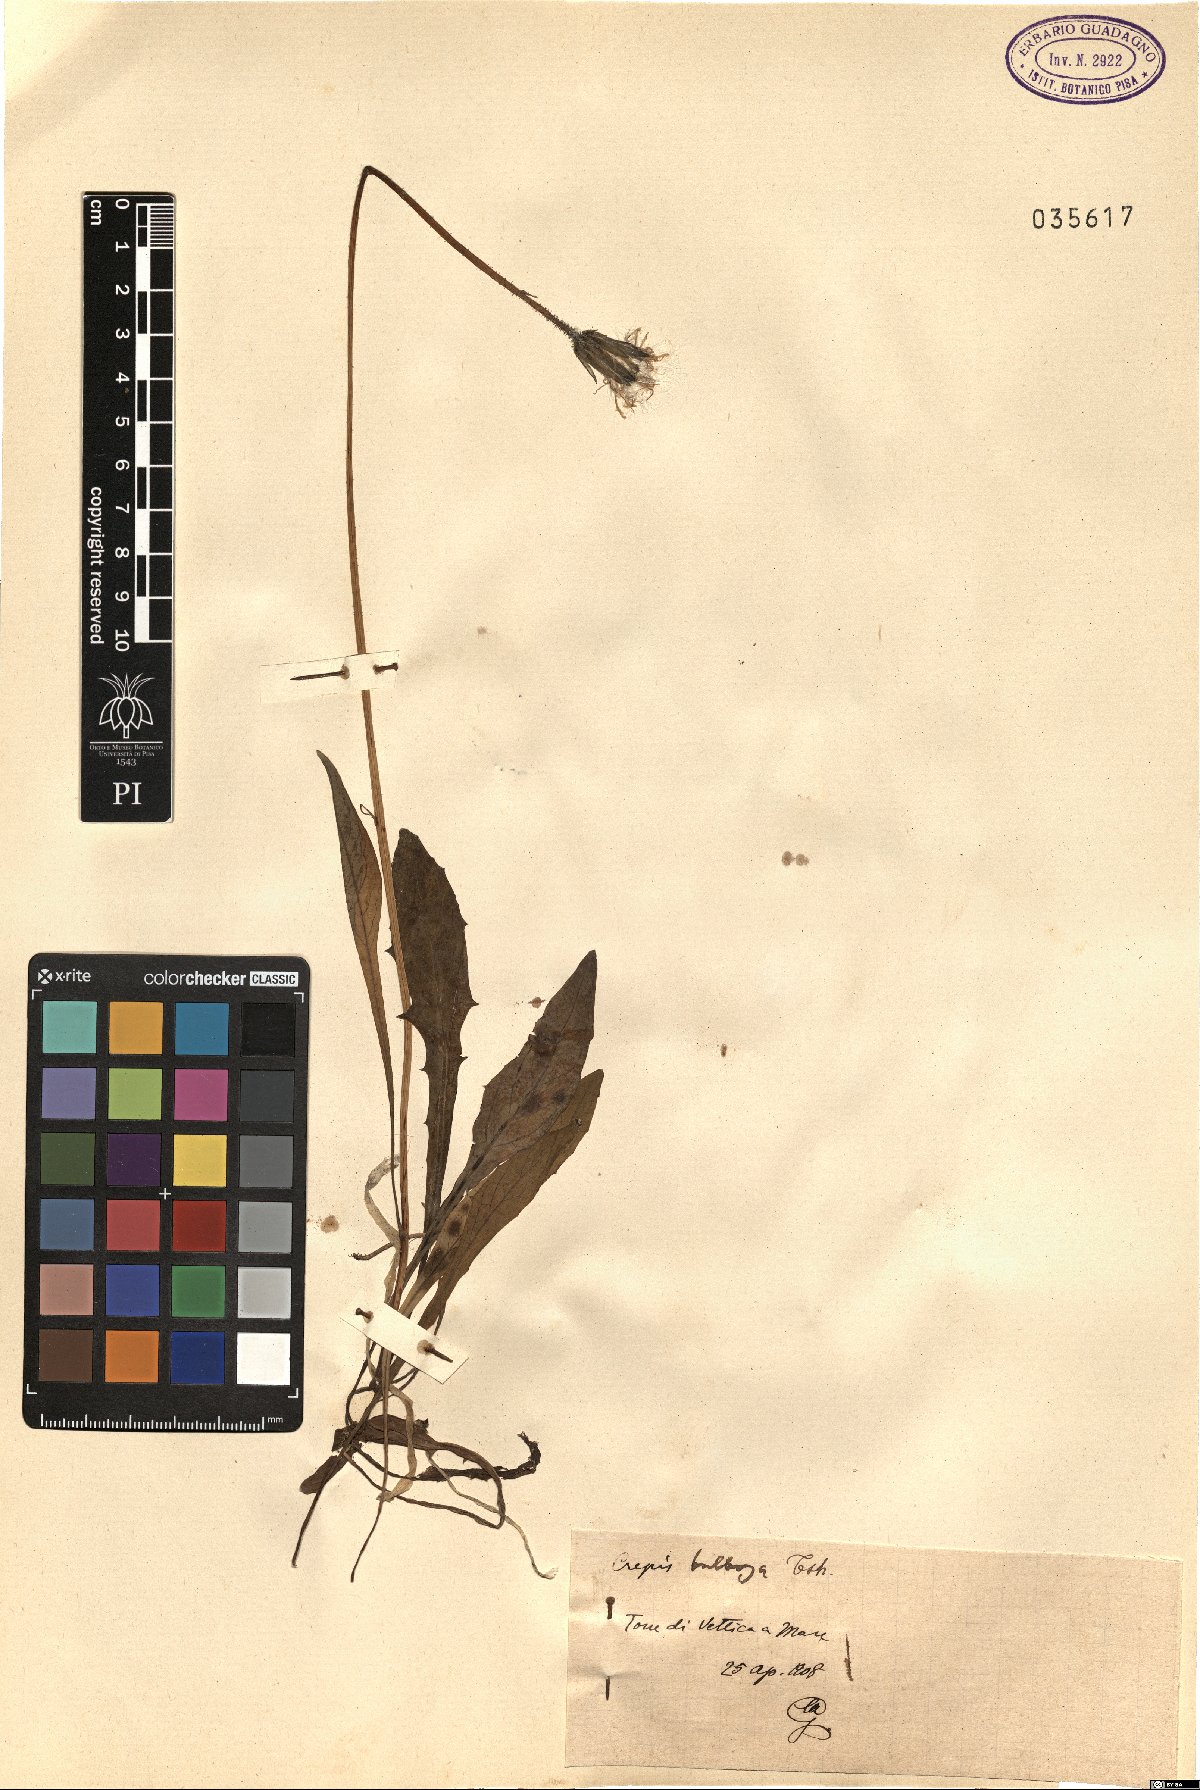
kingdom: Plantae
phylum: Tracheophyta
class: Magnoliopsida
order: Asterales
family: Asteraceae
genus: Aetheorhiza
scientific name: Aetheorhiza bulbosa
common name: Tuberous hawk's-beard
